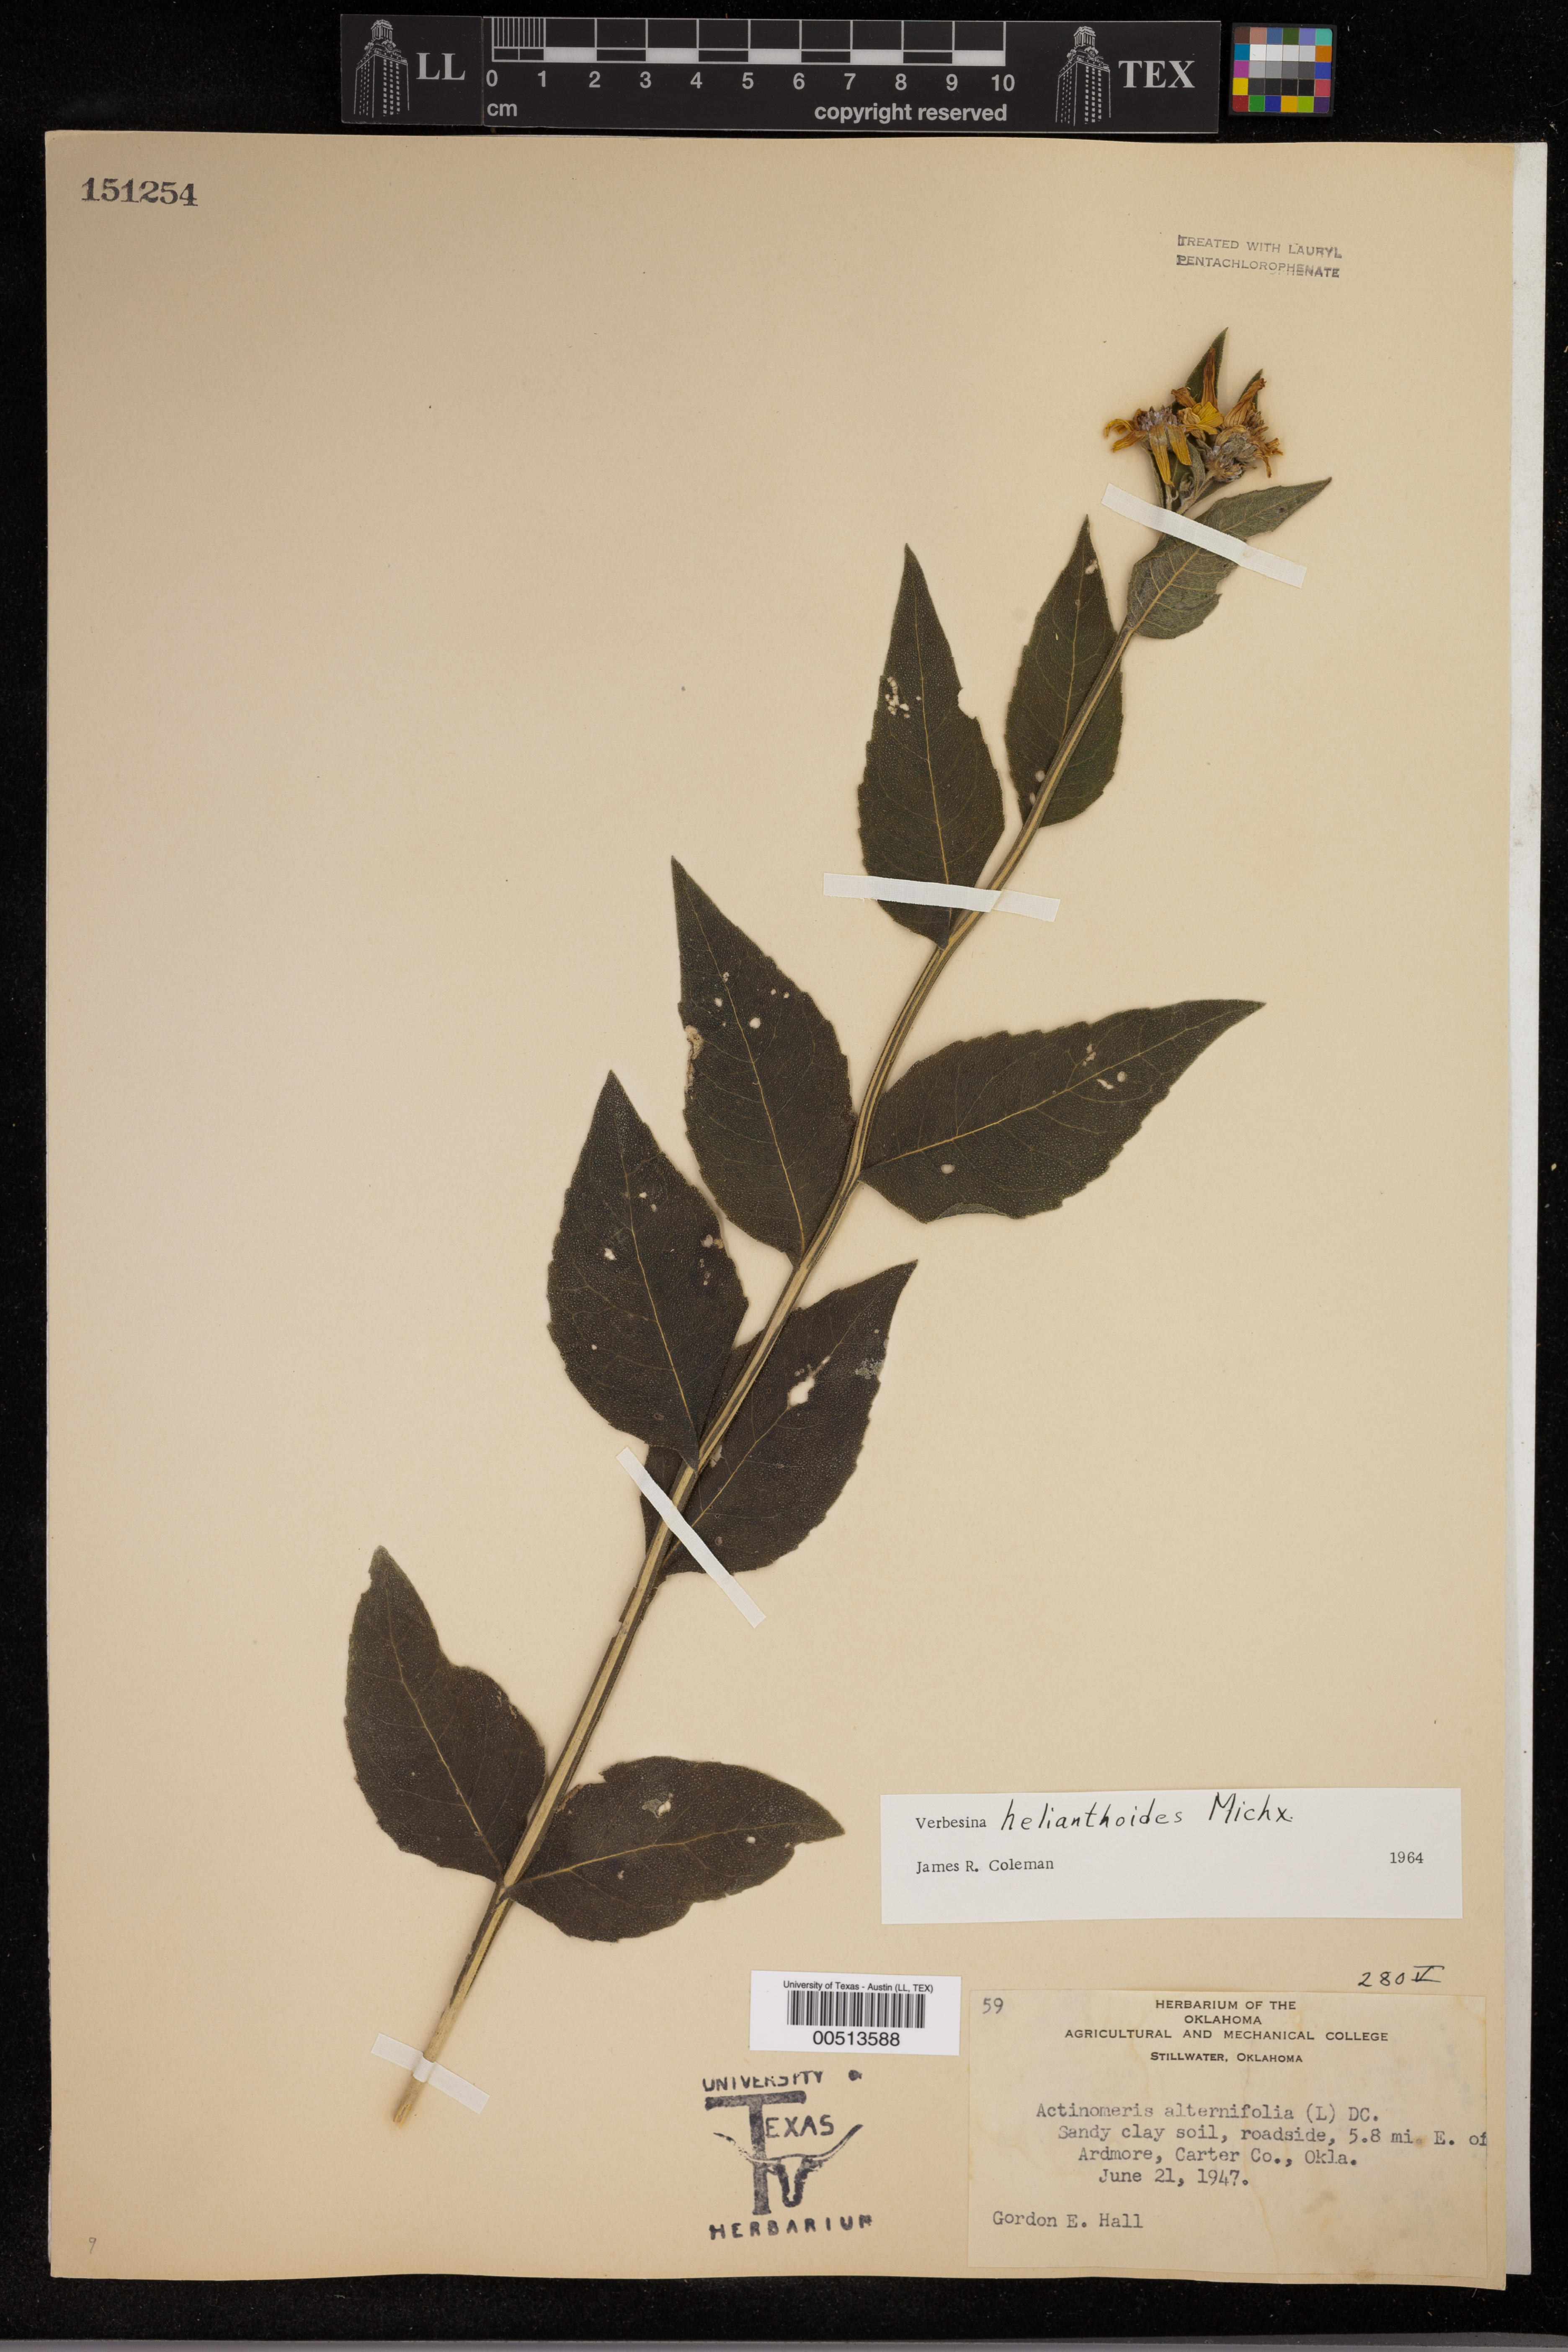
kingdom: Plantae
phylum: Tracheophyta
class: Magnoliopsida
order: Asterales
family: Asteraceae
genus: Verbesina
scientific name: Verbesina helianthoides
